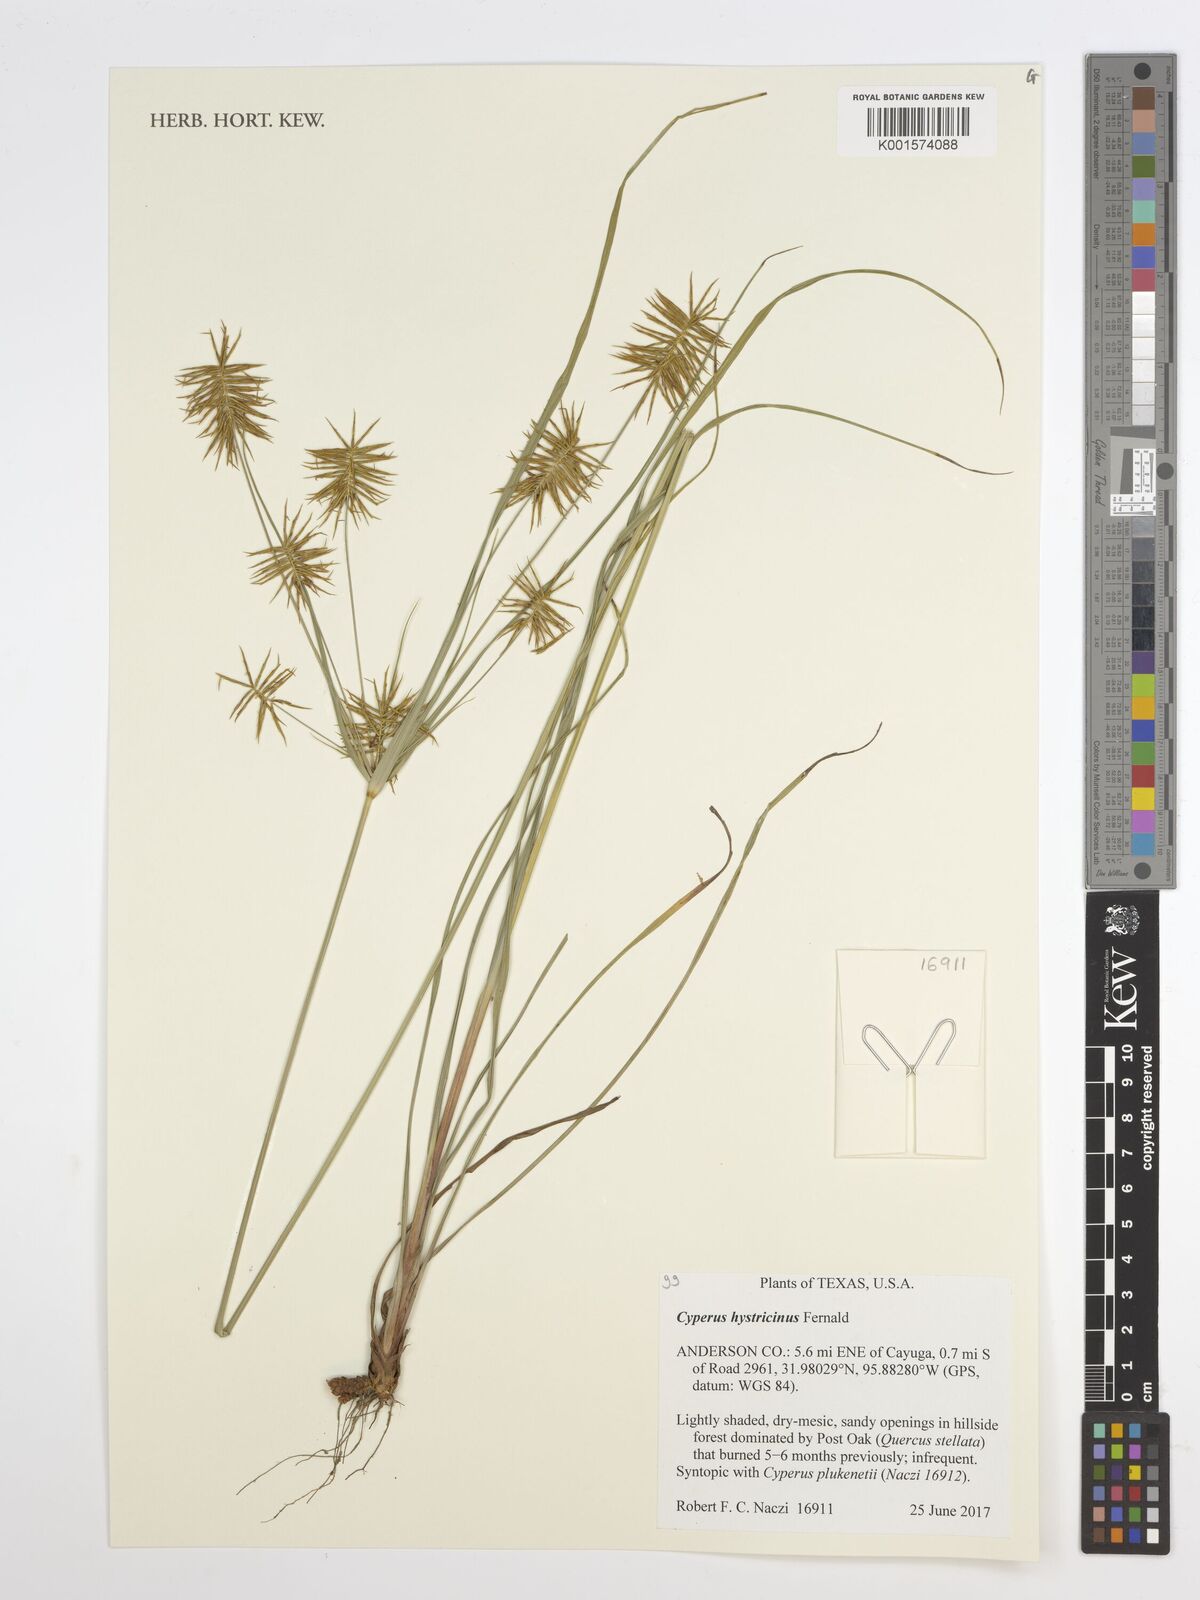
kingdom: Plantae
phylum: Tracheophyta
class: Liliopsida
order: Poales
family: Cyperaceae
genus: Cyperus
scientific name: Cyperus hystricinus
